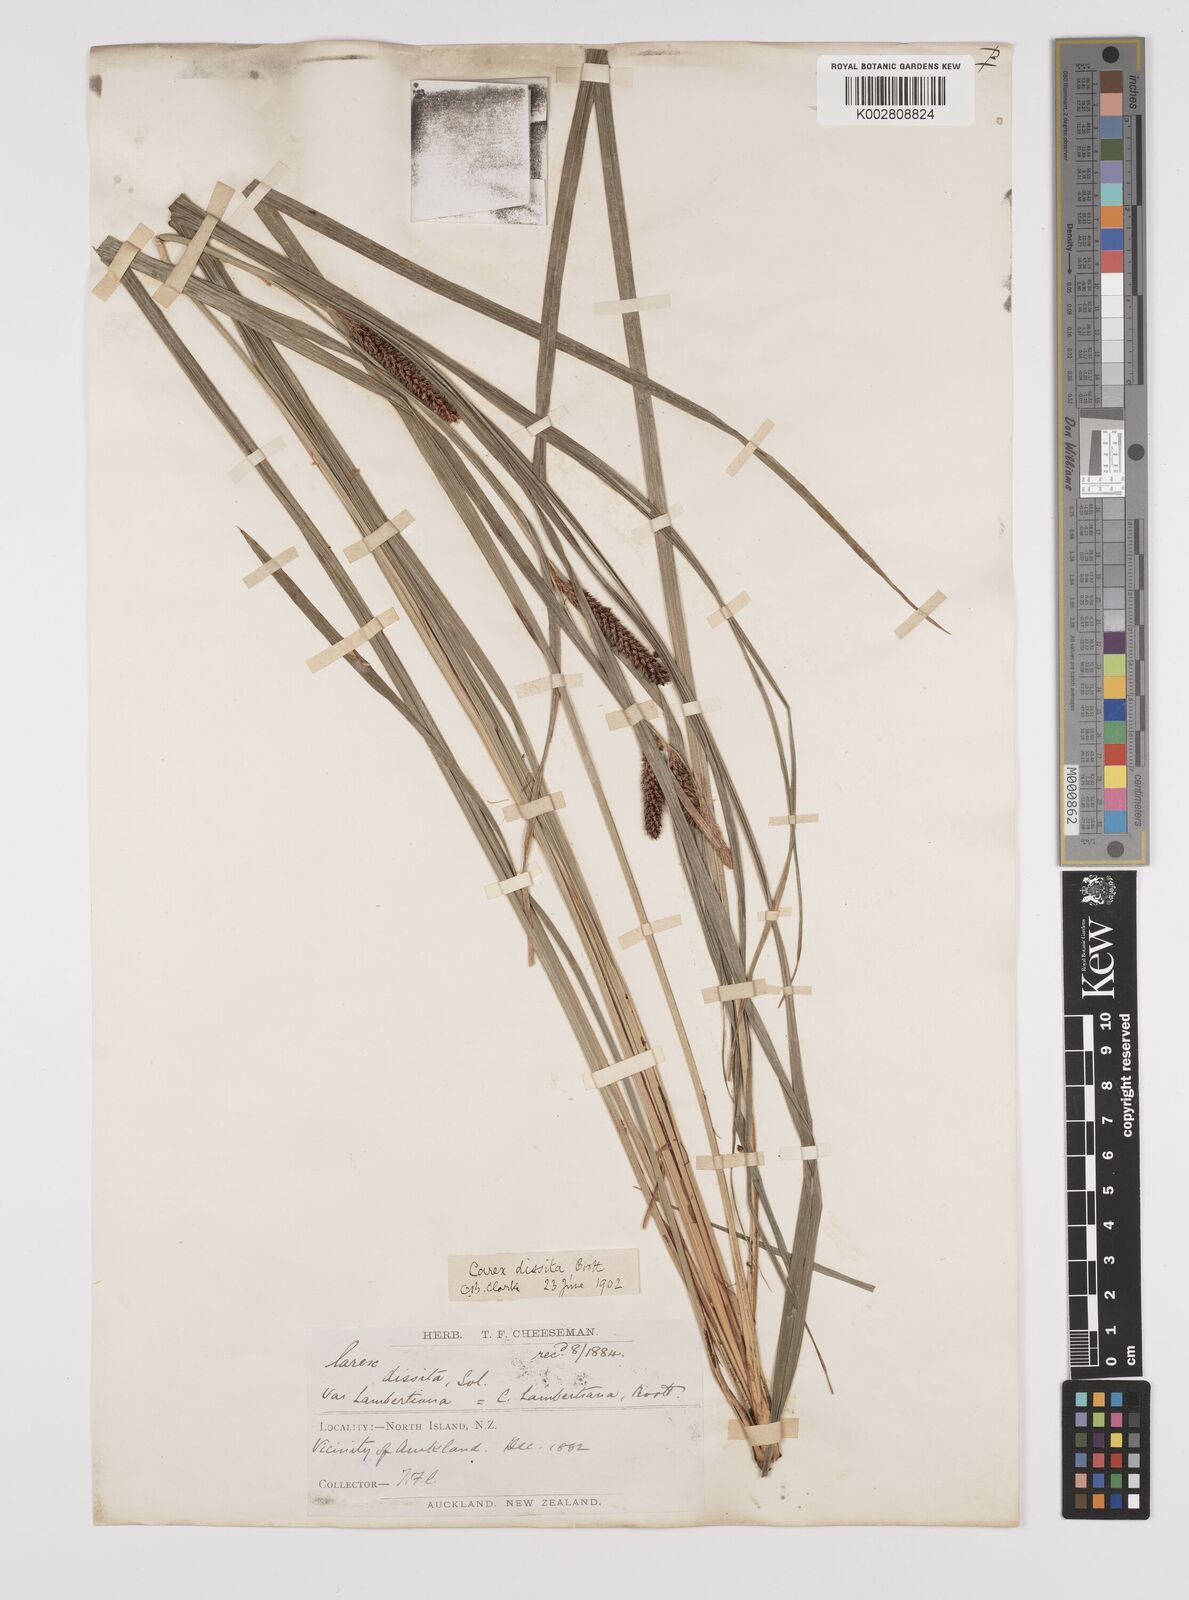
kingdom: Plantae
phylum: Tracheophyta
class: Liliopsida
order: Poales
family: Cyperaceae
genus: Carex
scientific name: Carex dissita
